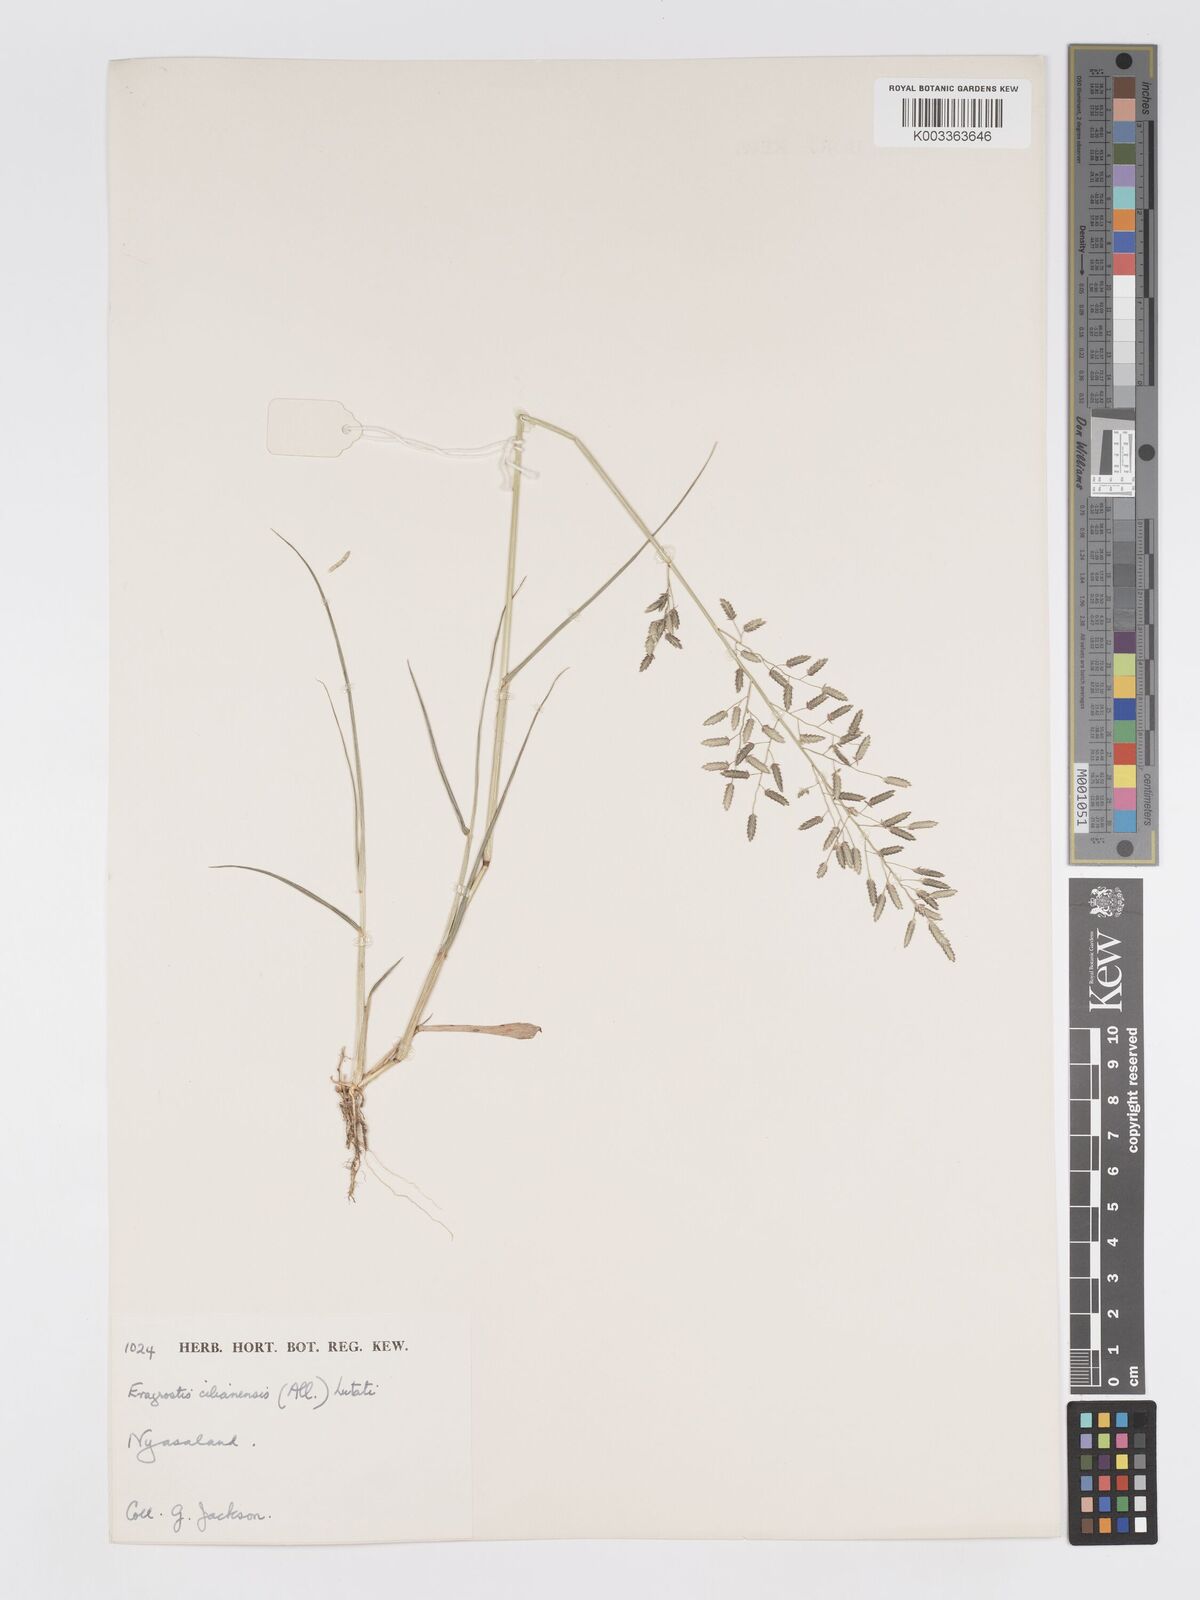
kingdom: Plantae
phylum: Tracheophyta
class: Liliopsida
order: Poales
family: Poaceae
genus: Eragrostis
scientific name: Eragrostis cilianensis
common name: Stinkgrass
